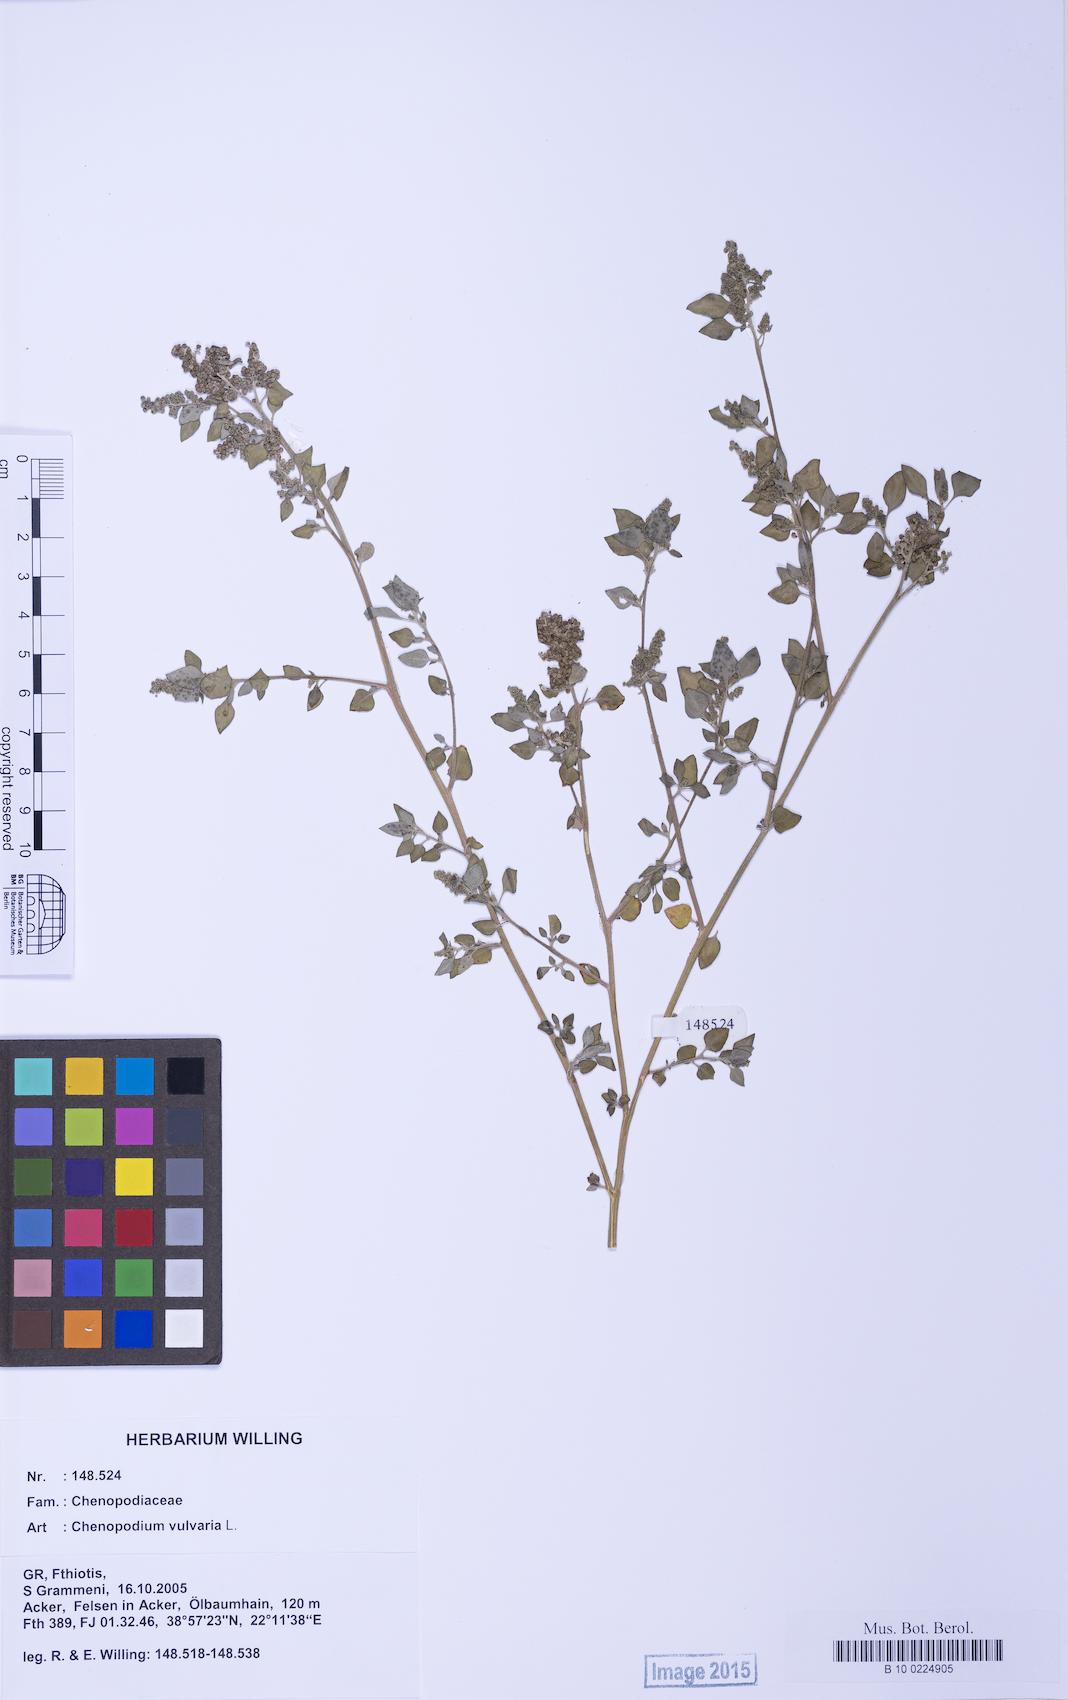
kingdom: Plantae
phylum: Tracheophyta
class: Magnoliopsida
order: Caryophyllales
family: Amaranthaceae
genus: Chenopodium
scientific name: Chenopodium vulvaria
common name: Stinking goosefoot
